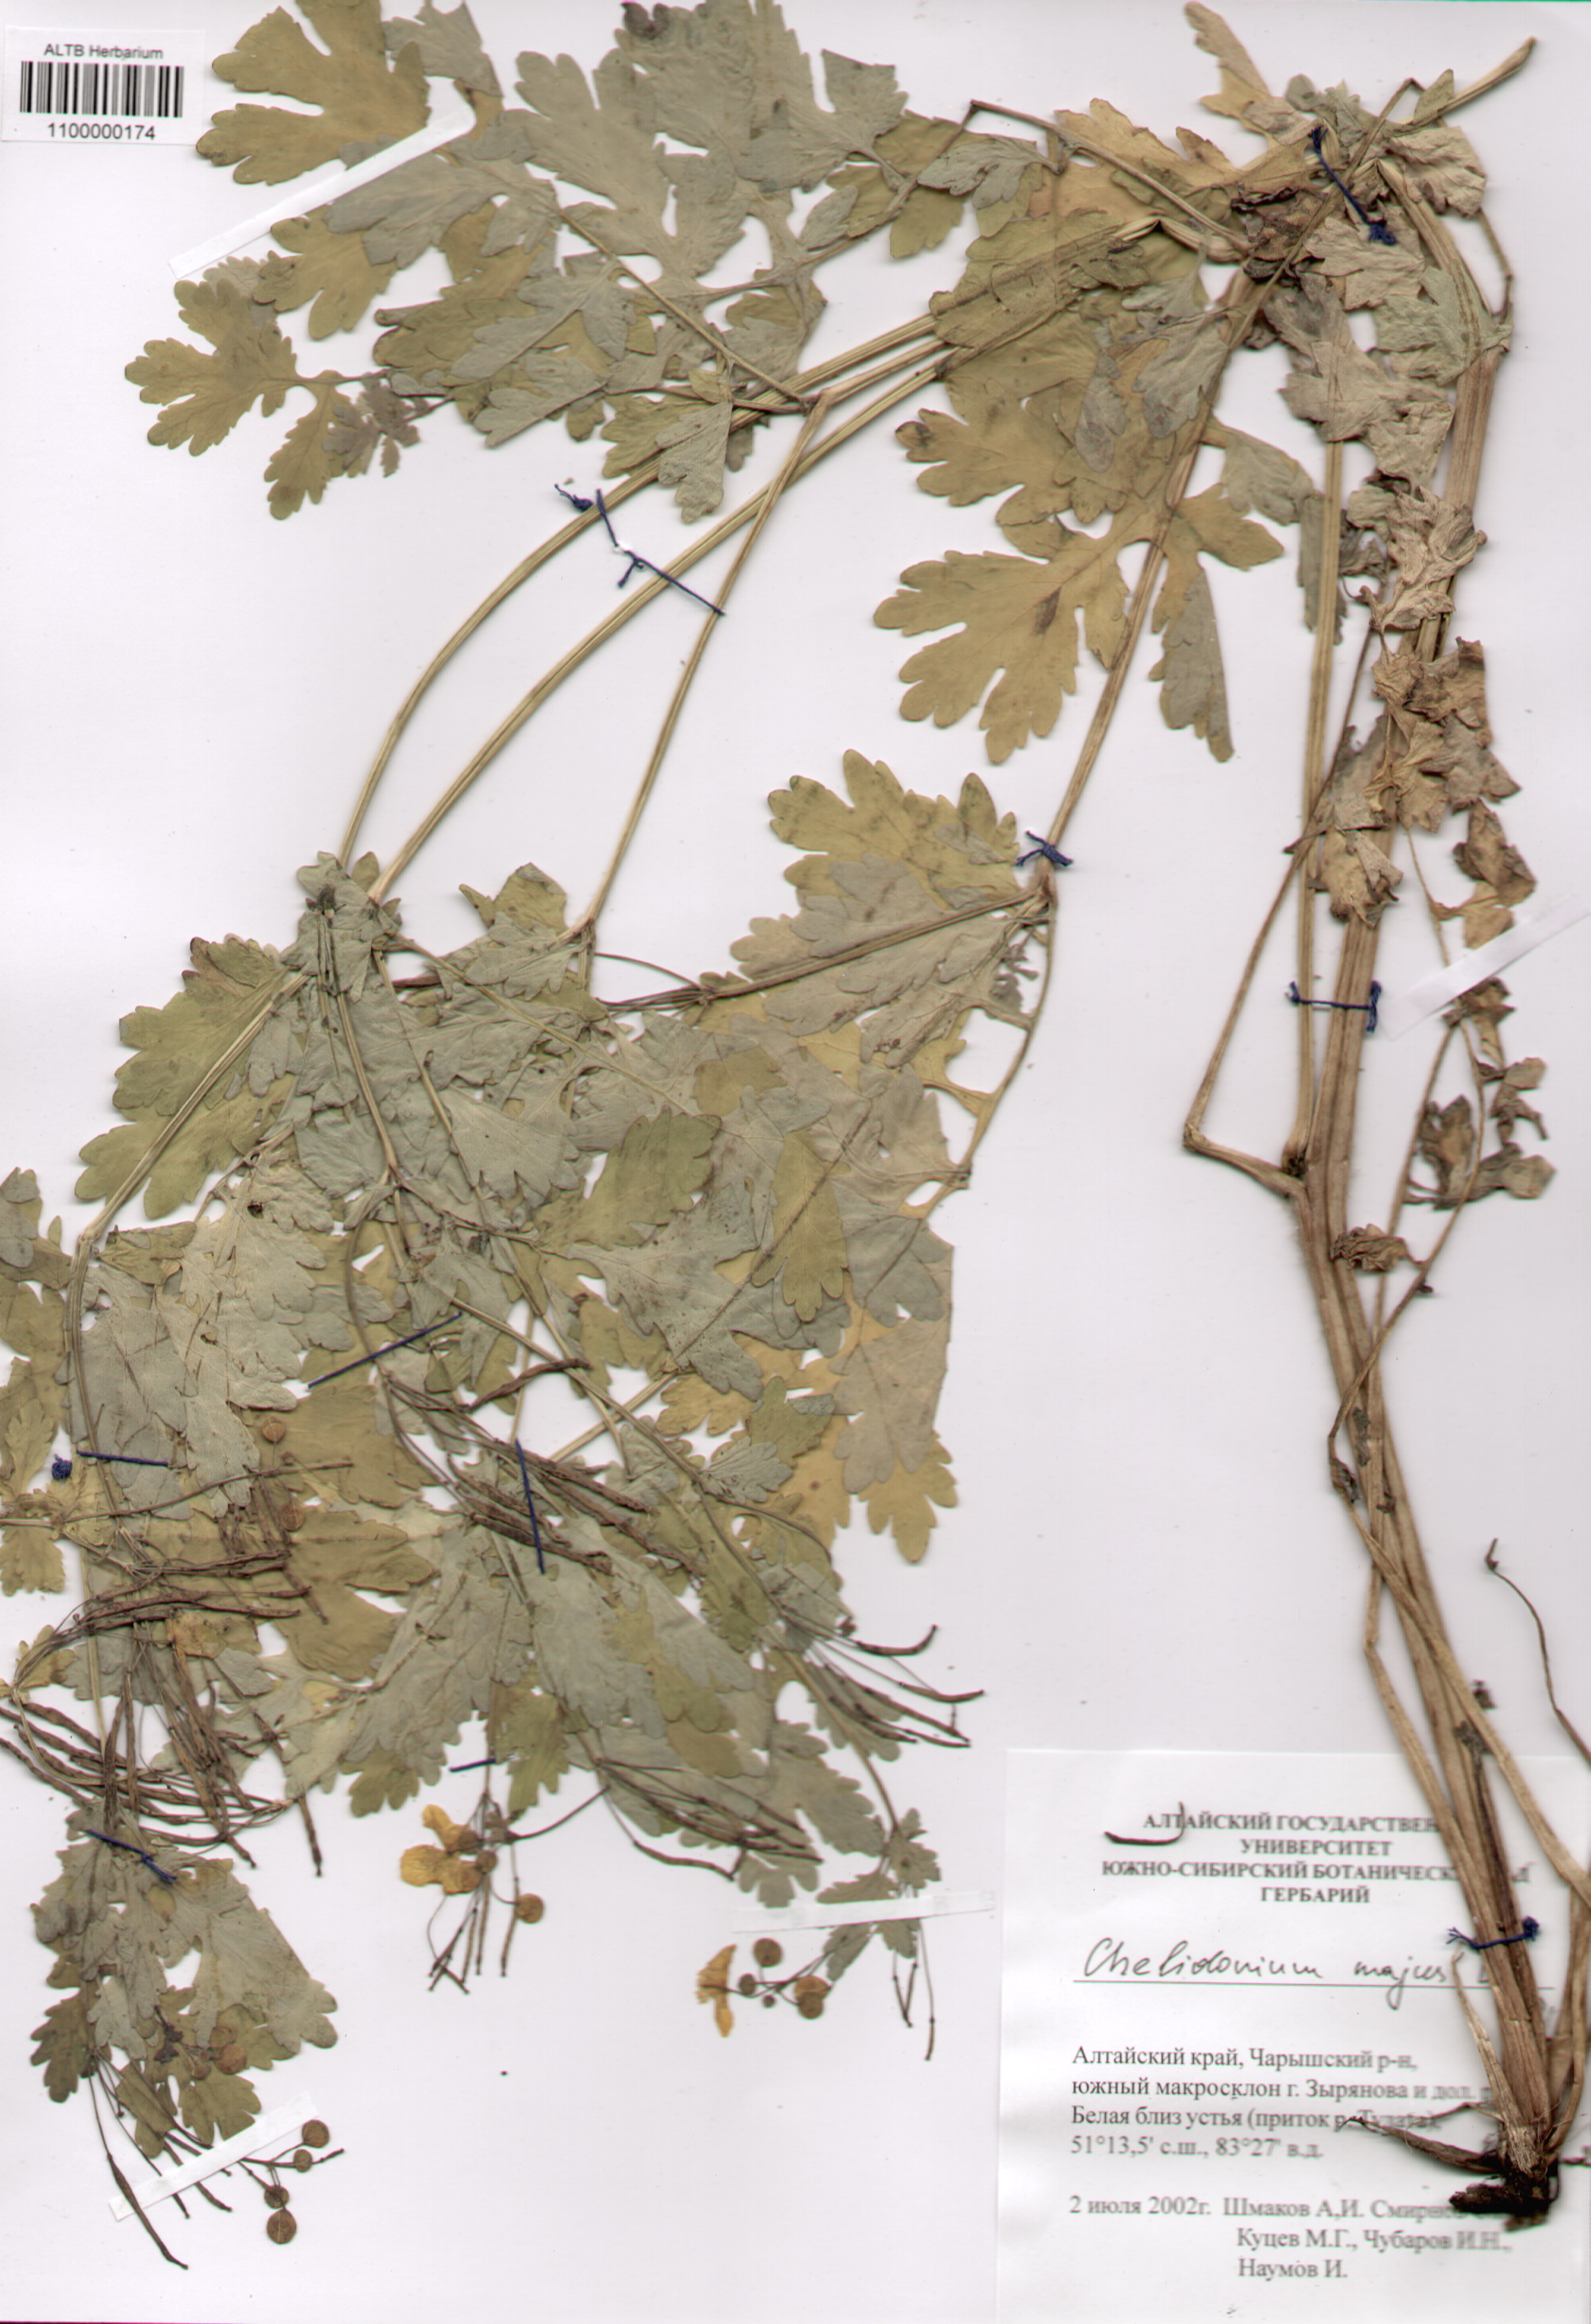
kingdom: Plantae
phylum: Tracheophyta
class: Magnoliopsida
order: Ranunculales
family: Papaveraceae
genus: Chelidonium
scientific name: Chelidonium majus
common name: Greater celandine
